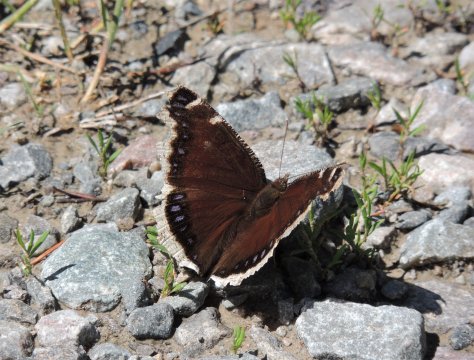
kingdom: Animalia
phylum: Arthropoda
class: Insecta
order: Lepidoptera
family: Nymphalidae
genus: Nymphalis
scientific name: Nymphalis antiopa
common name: Mourning Cloak
